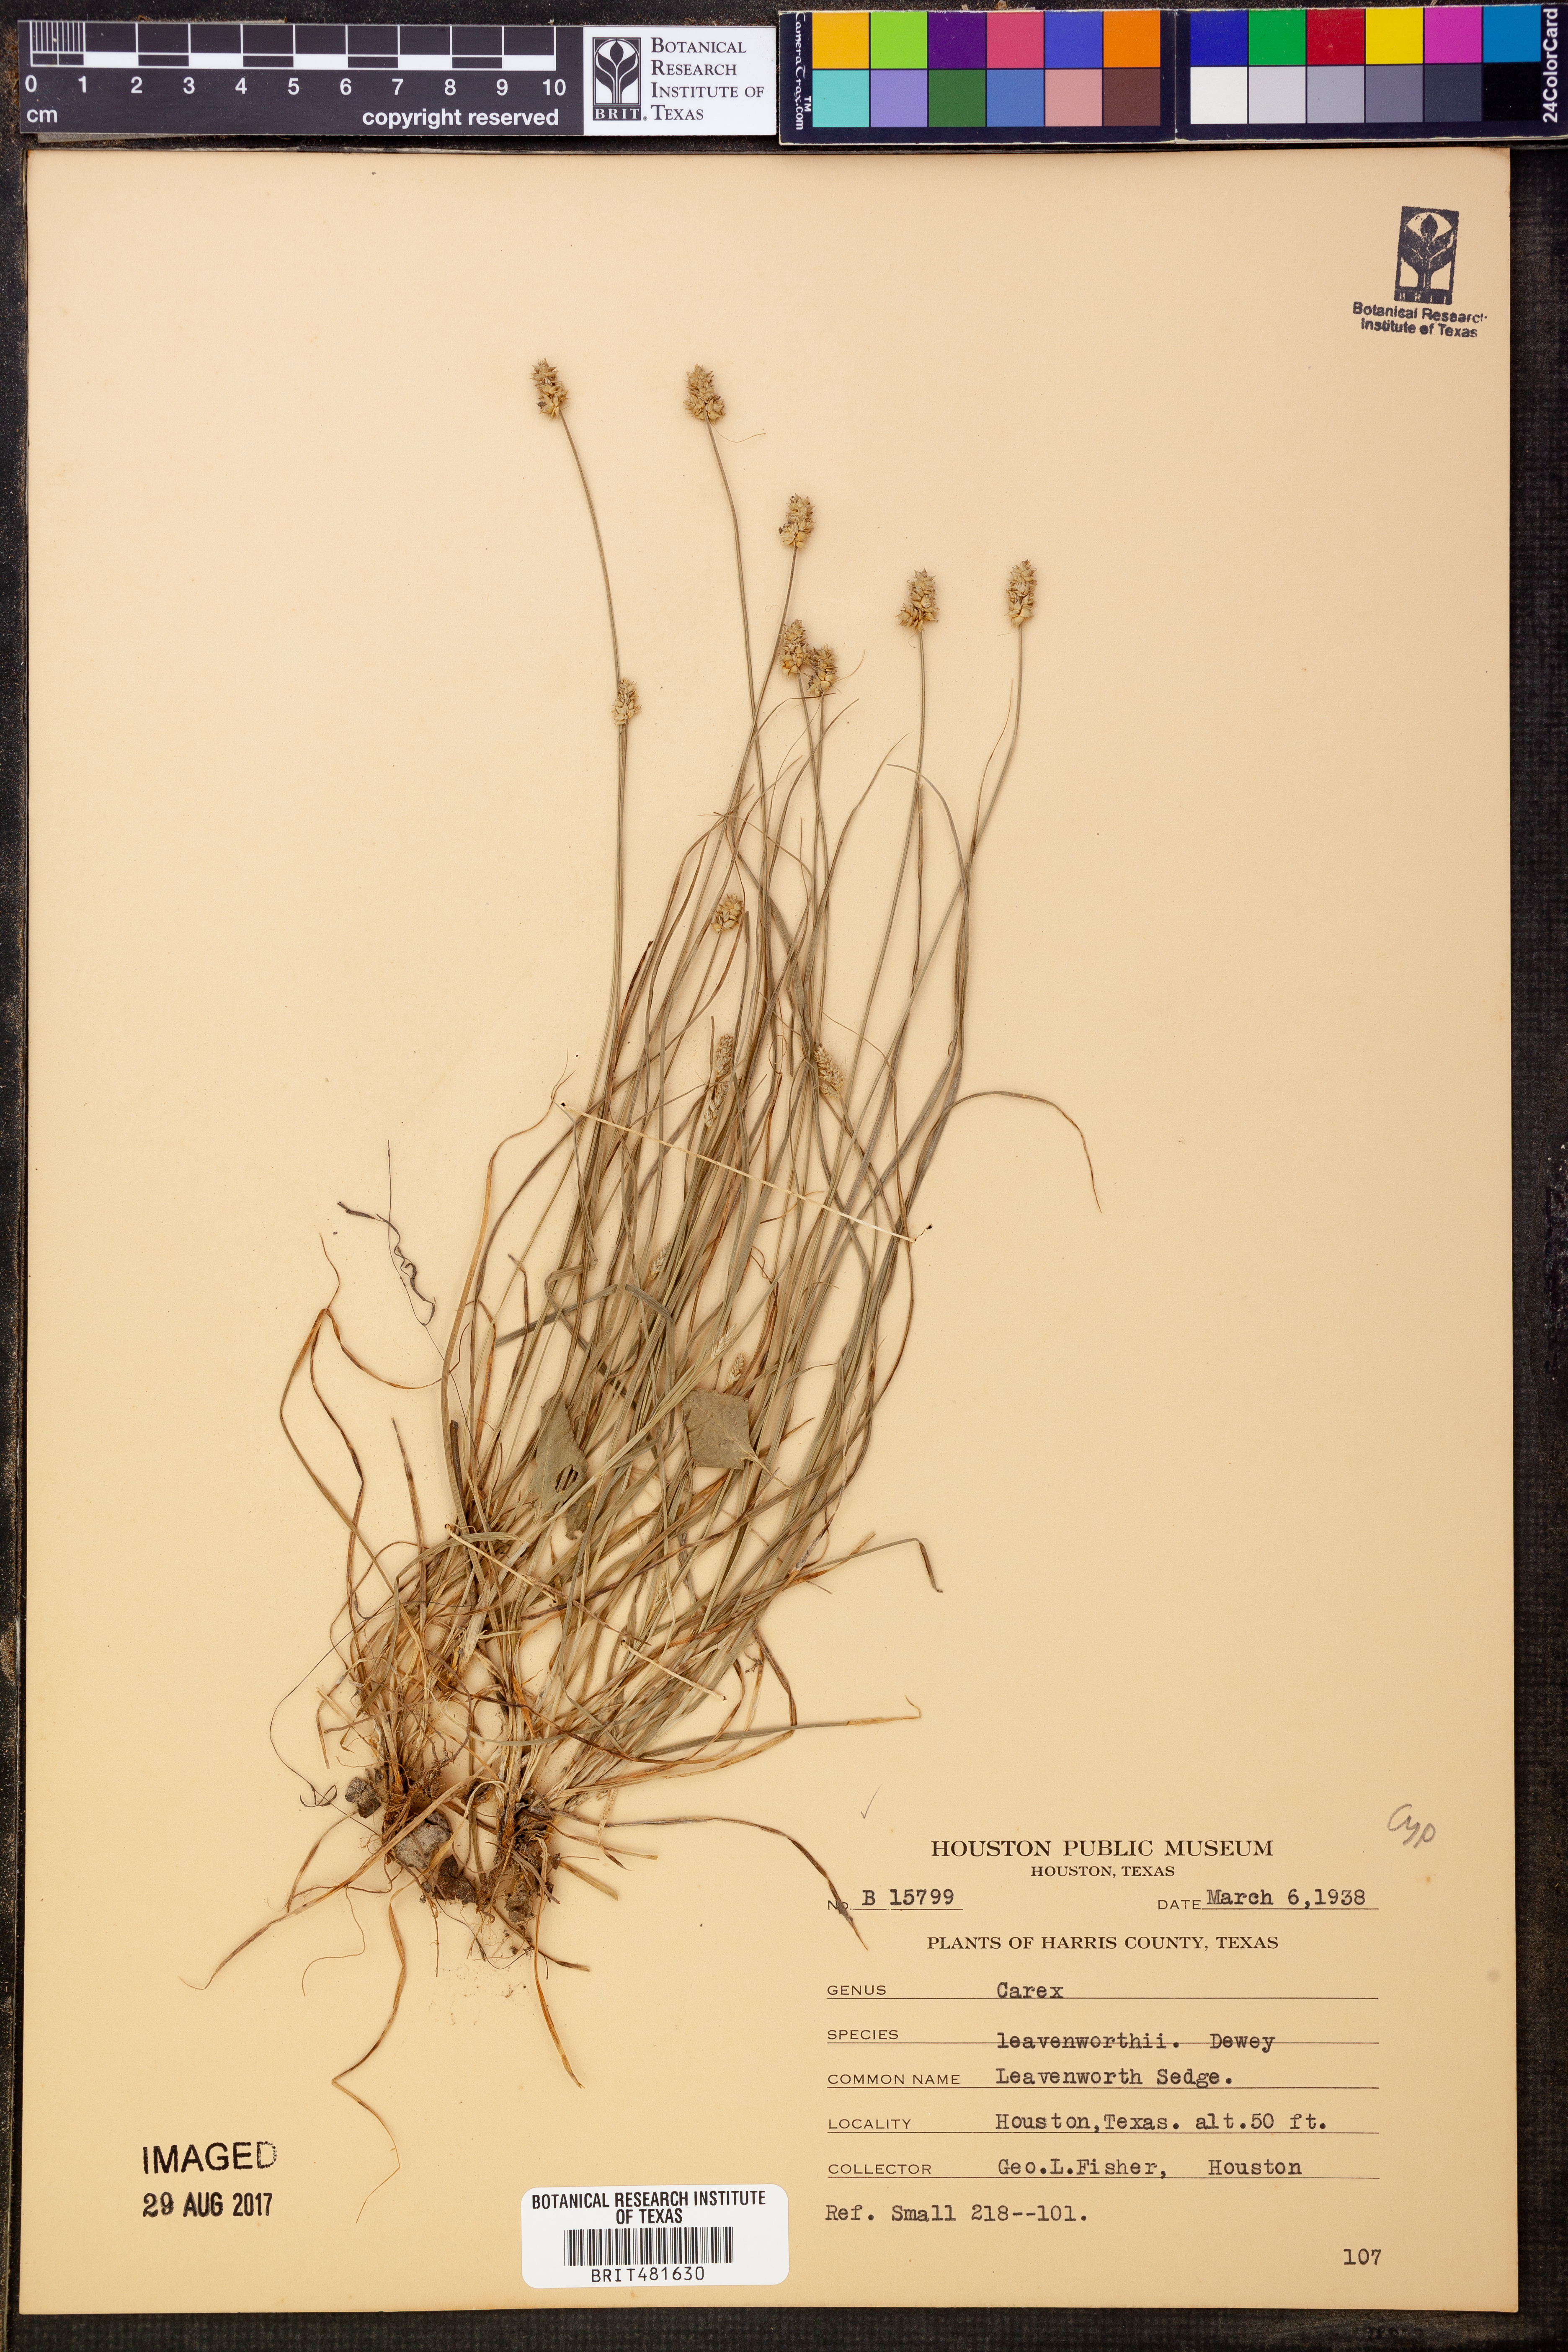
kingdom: Plantae
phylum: Tracheophyta
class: Liliopsida
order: Poales
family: Cyperaceae
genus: Carex
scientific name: Carex leavenworthii
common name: Leavenworth's bracted sedge
